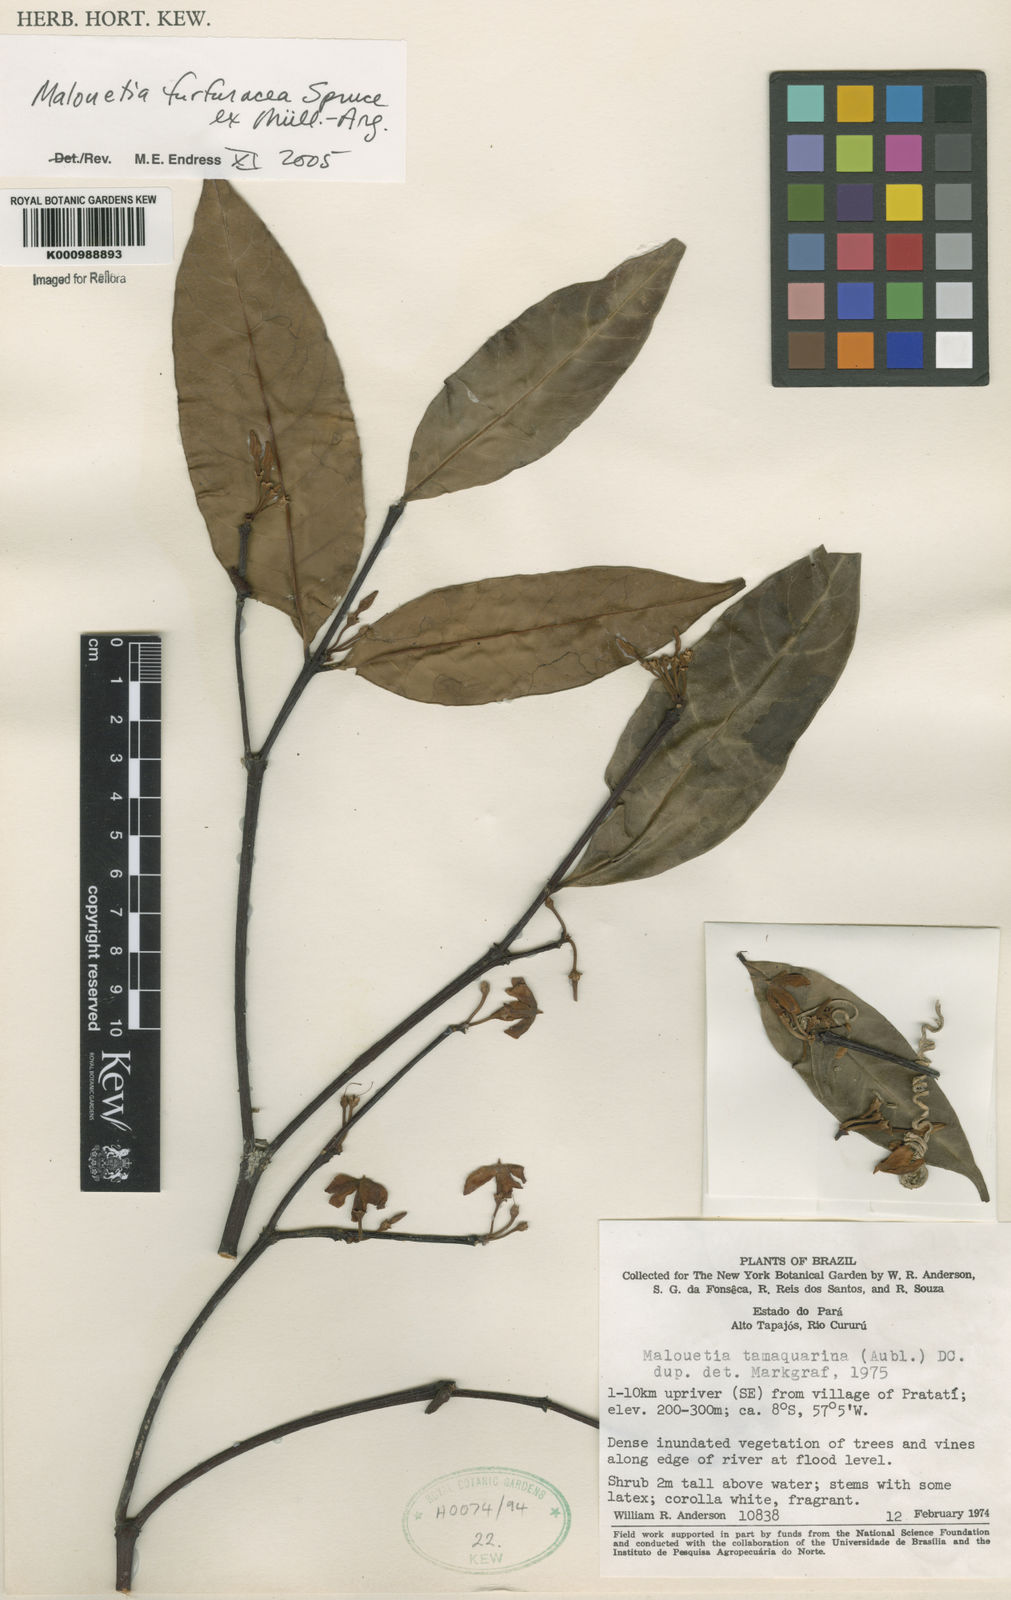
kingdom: Plantae
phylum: Tracheophyta
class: Magnoliopsida
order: Gentianales
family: Apocynaceae
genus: Malouetia
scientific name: Malouetia
